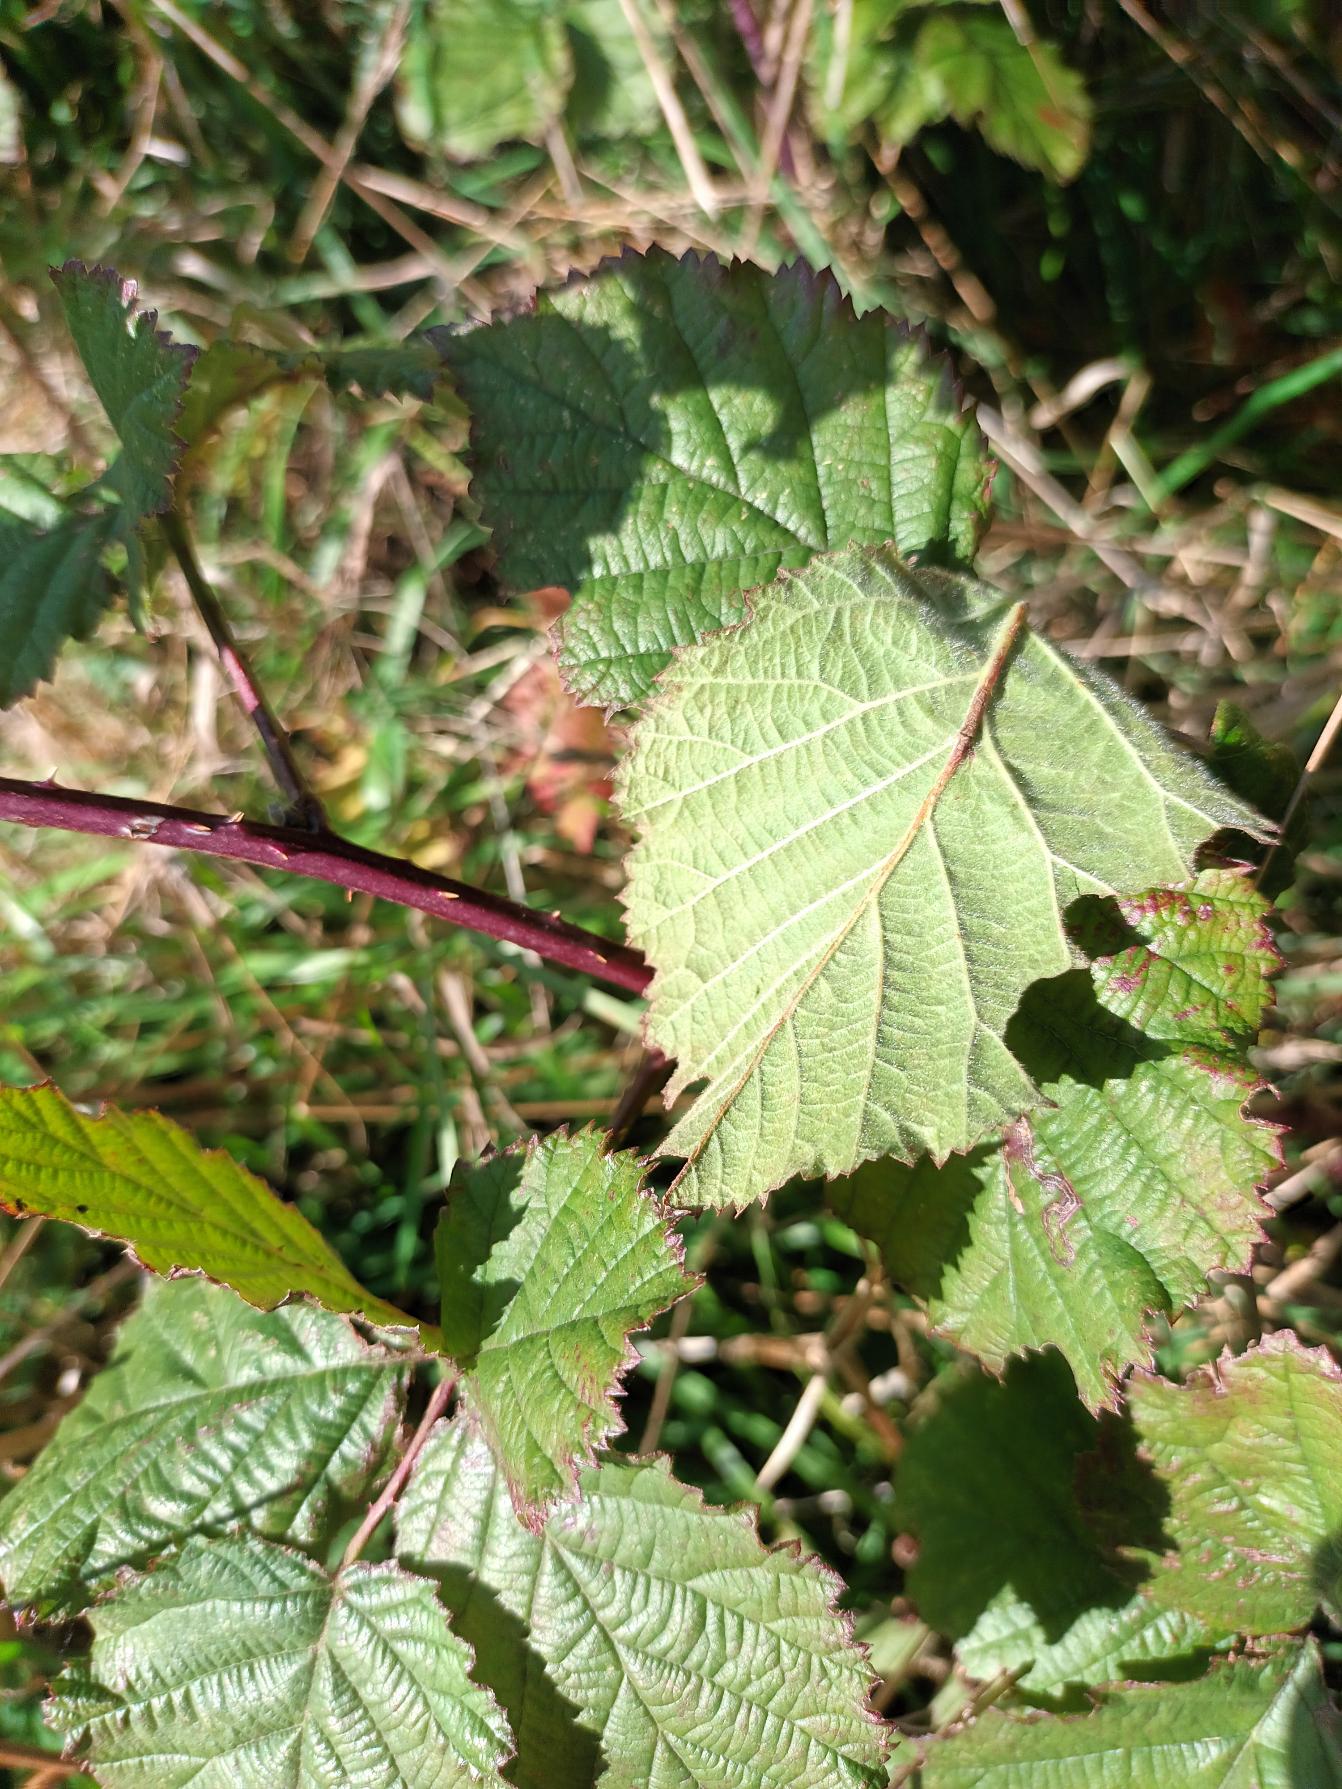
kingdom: Plantae
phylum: Tracheophyta
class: Magnoliopsida
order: Rosales
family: Rosaceae
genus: Rubus
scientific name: Rubus wahlbergii
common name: Wahlbergs hasselbrombær
